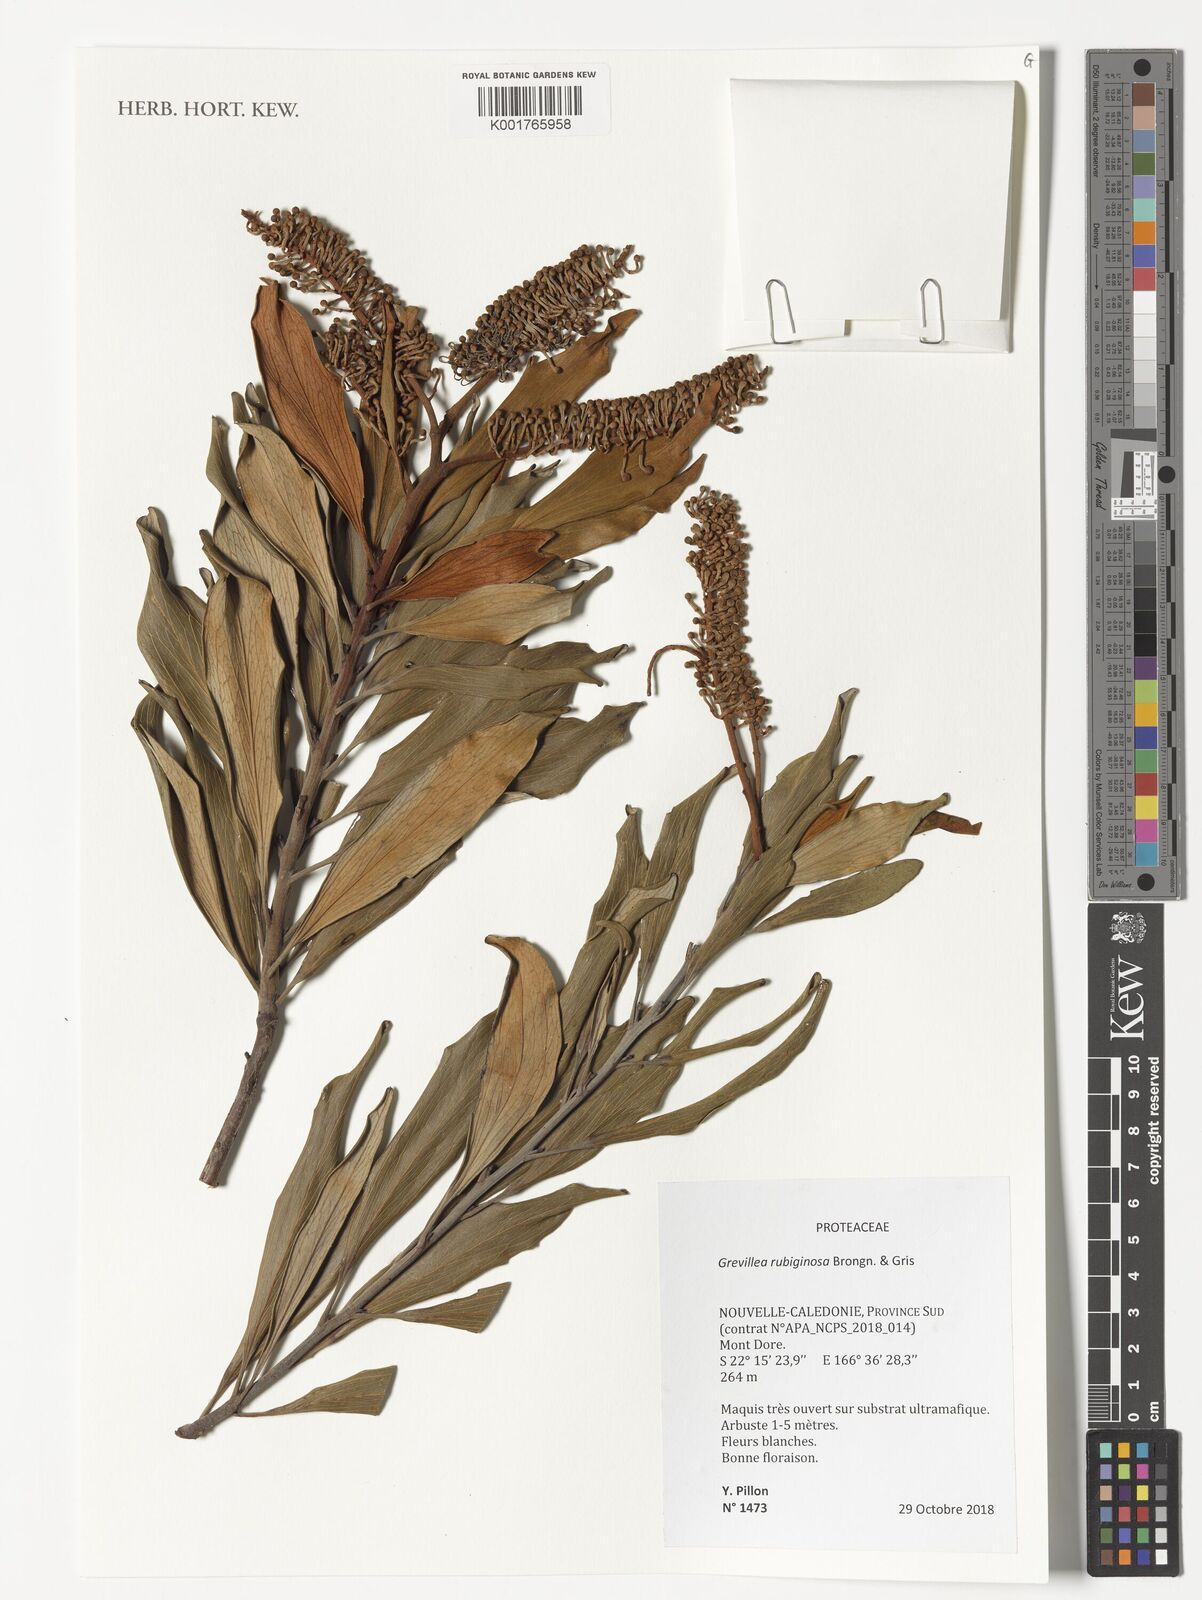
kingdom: Plantae
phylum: Tracheophyta
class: Magnoliopsida
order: Proteales
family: Proteaceae
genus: Grevillea
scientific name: Grevillea exul
